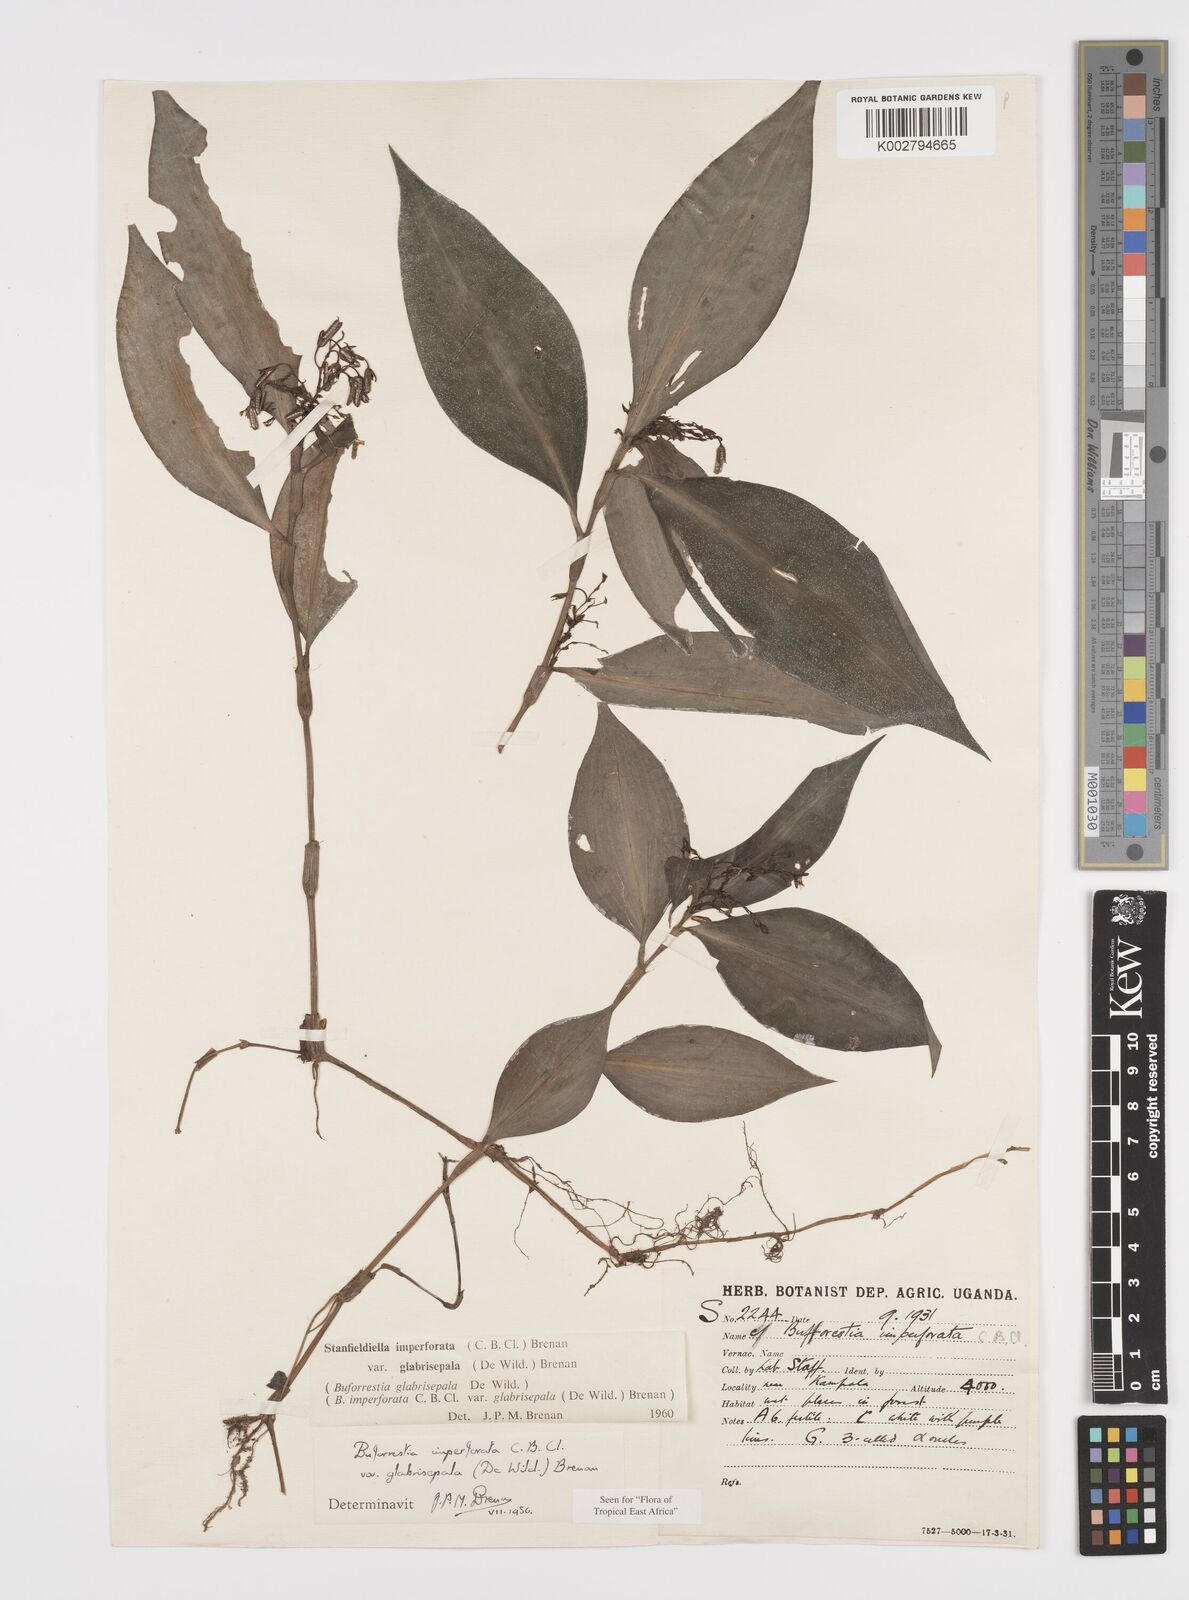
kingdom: Plantae
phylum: Tracheophyta
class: Liliopsida
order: Commelinales
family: Commelinaceae
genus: Stanfieldiella
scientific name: Stanfieldiella imperforata
